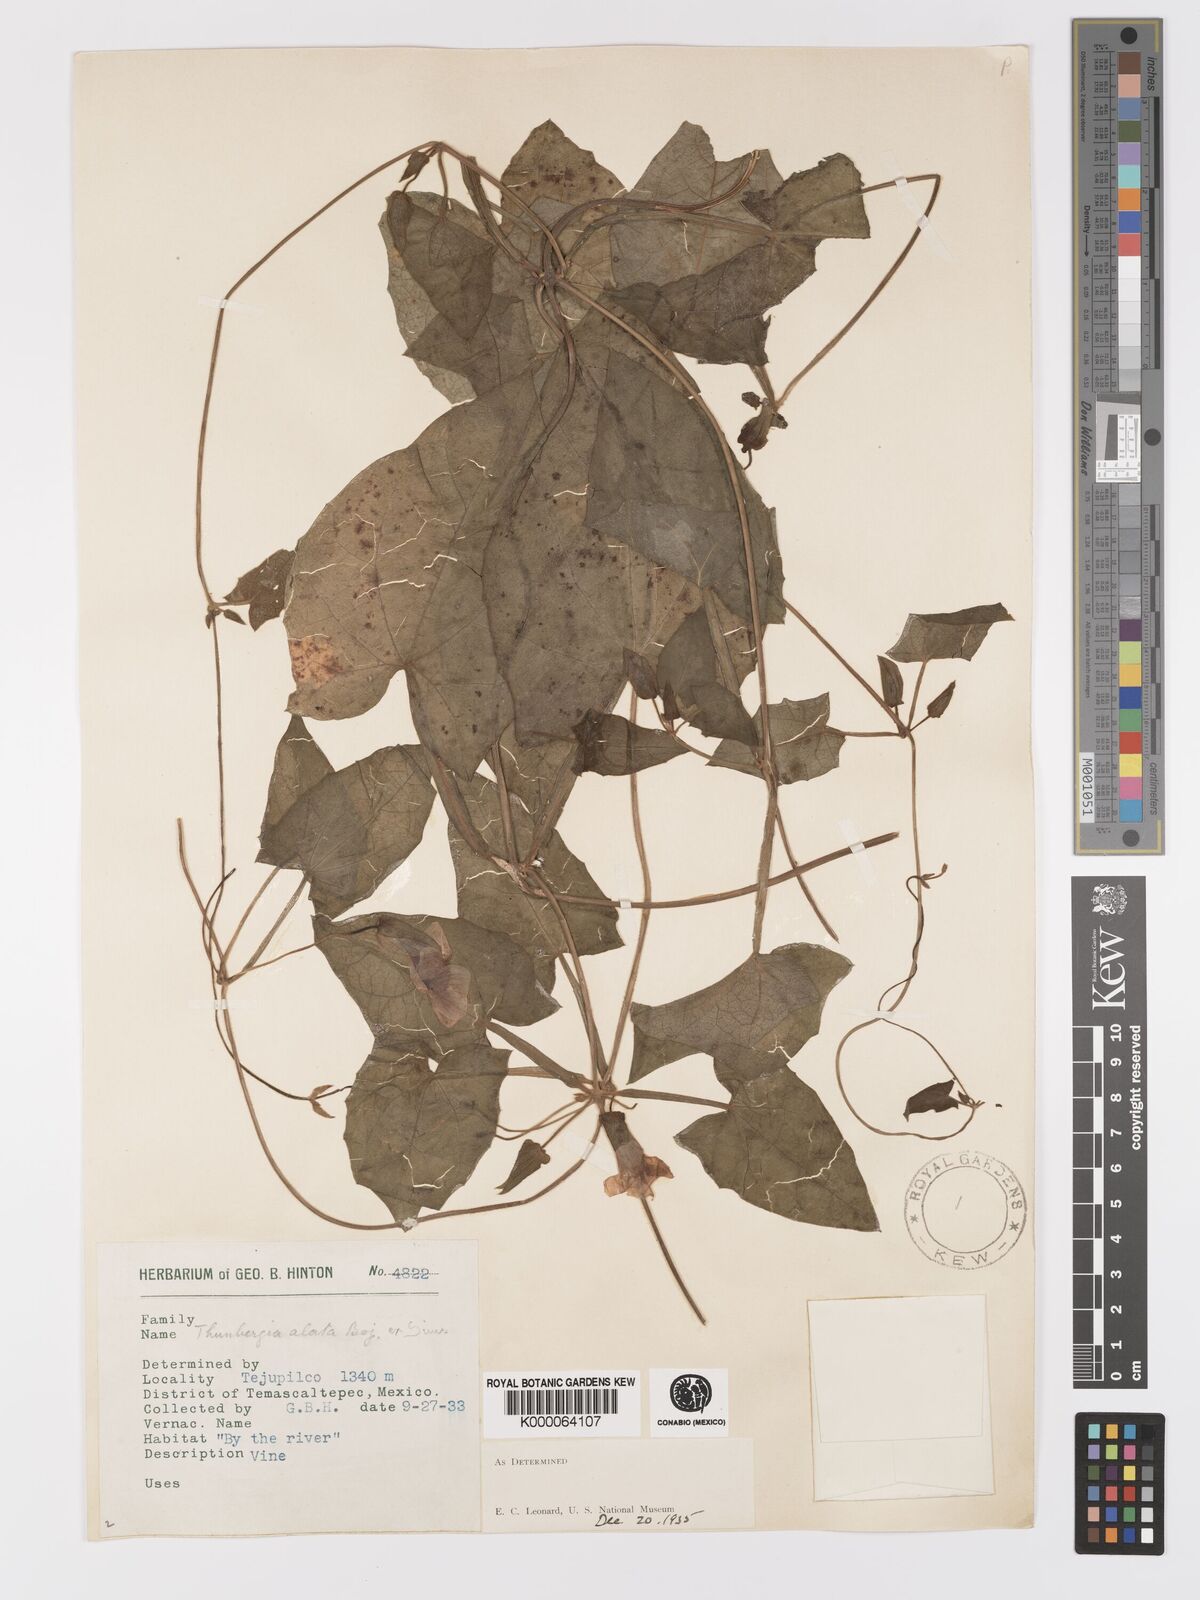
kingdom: Plantae
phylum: Tracheophyta
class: Magnoliopsida
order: Lamiales
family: Acanthaceae
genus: Thunbergia
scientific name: Thunbergia alata
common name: Blackeyed susan vine
